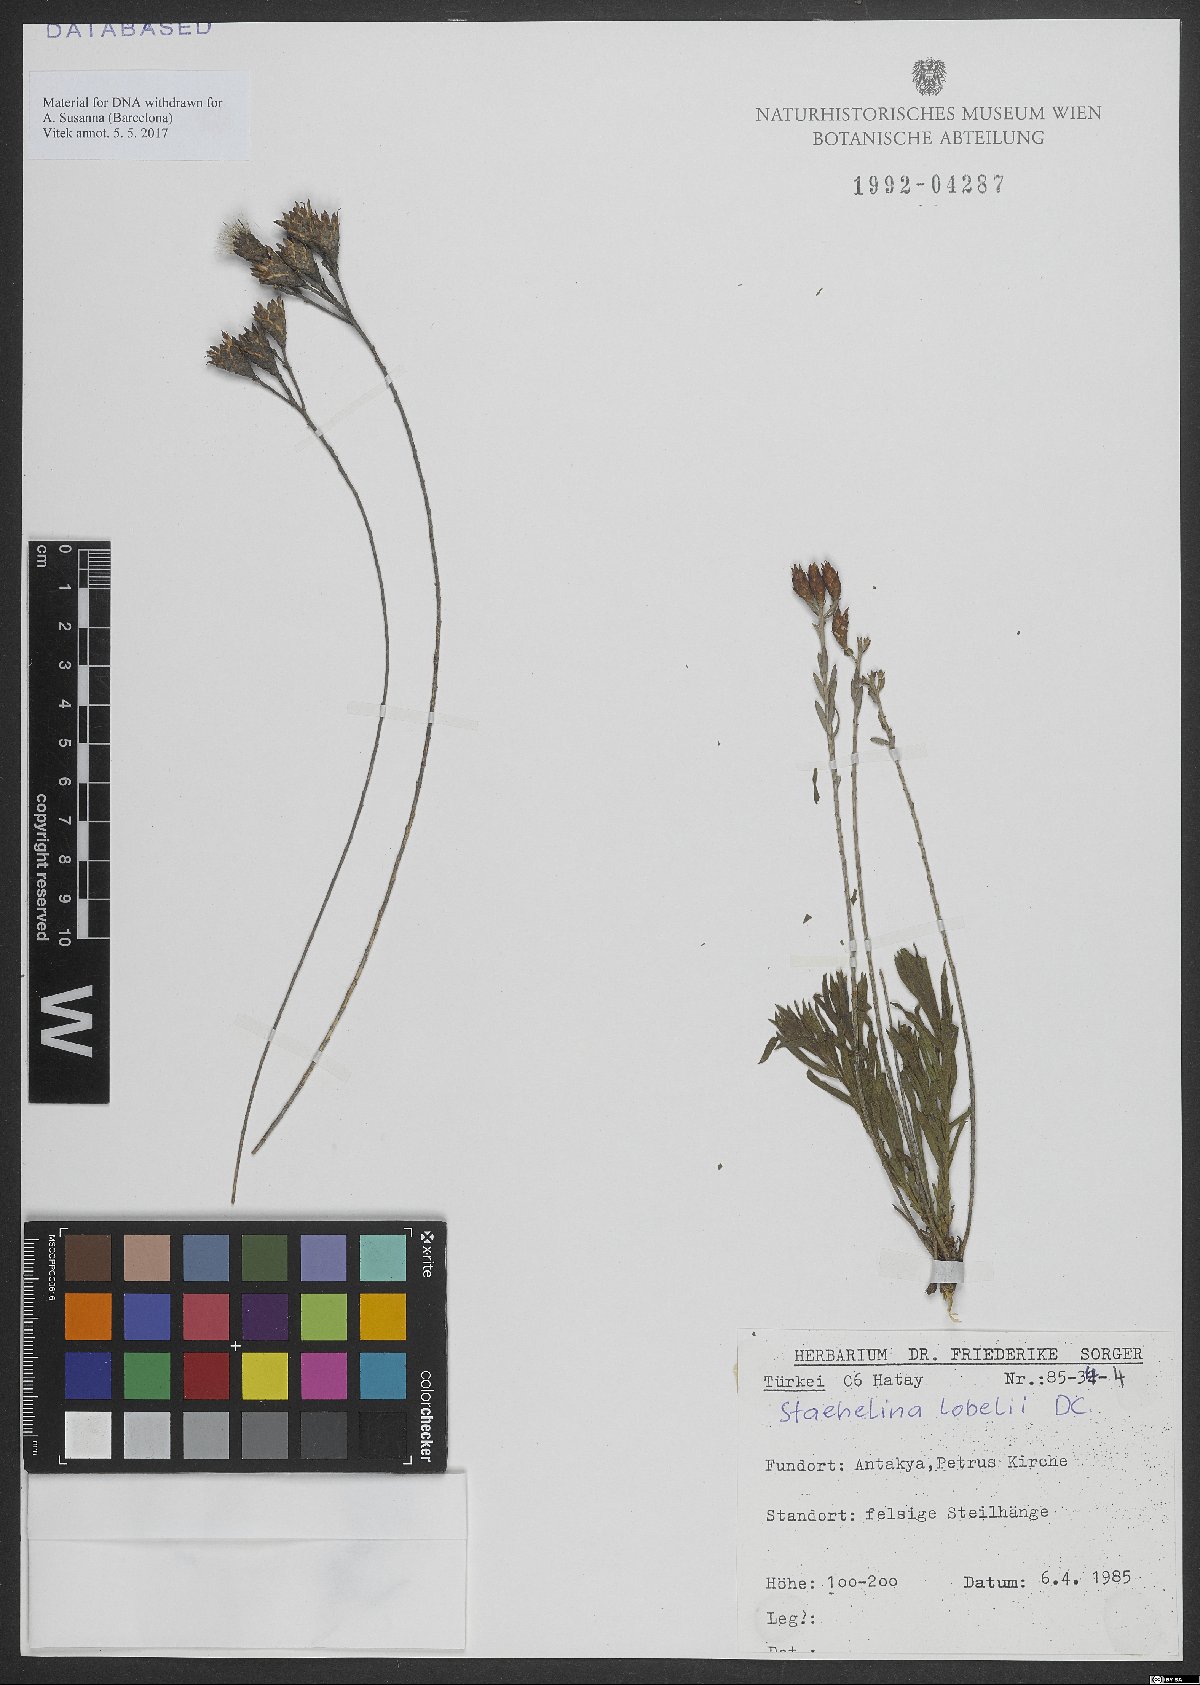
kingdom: Plantae
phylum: Tracheophyta
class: Magnoliopsida
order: Asterales
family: Asteraceae
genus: Staehelina
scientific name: Staehelina
